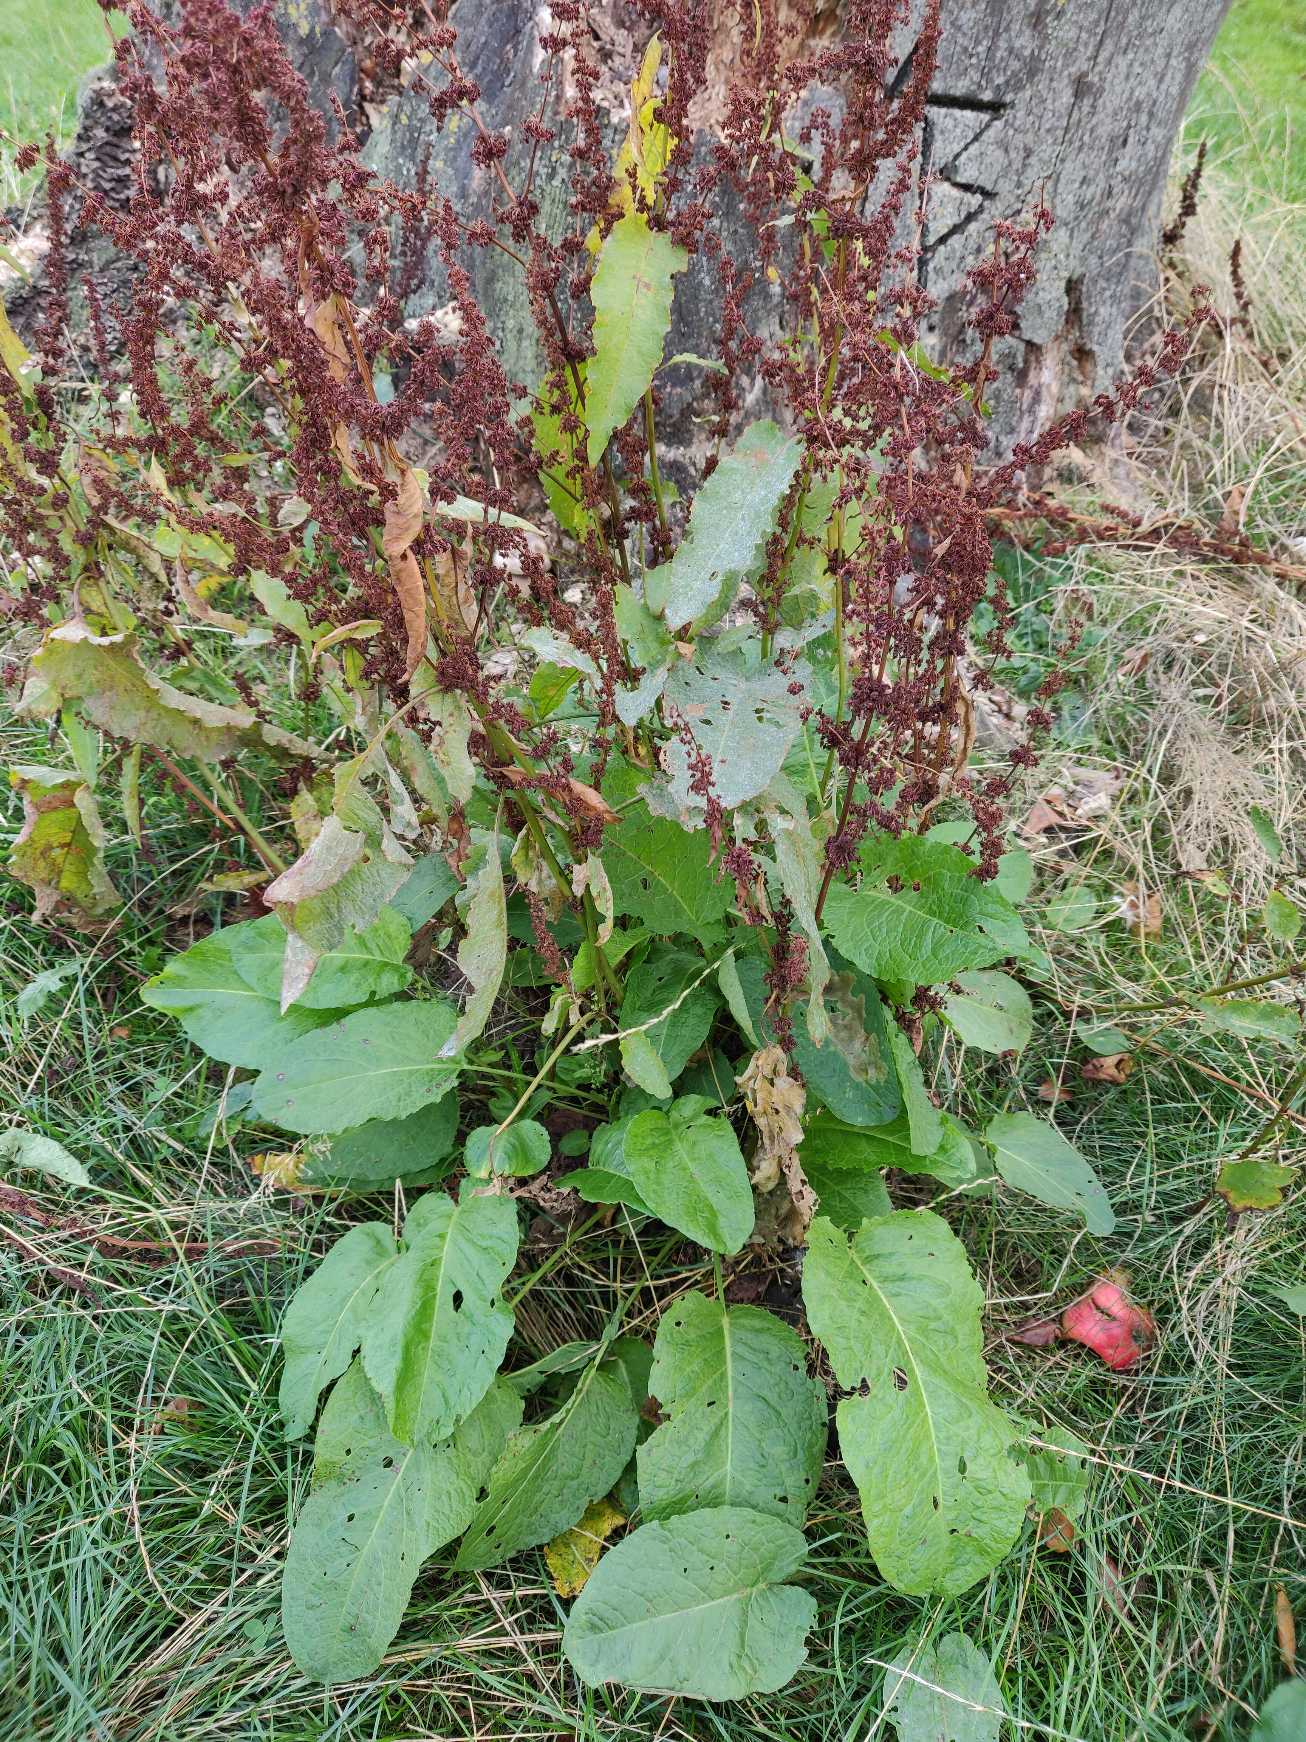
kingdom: Plantae
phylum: Tracheophyta
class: Magnoliopsida
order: Caryophyllales
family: Polygonaceae
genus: Rumex
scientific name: Rumex obtusifolius
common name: Butbladet skræppe
